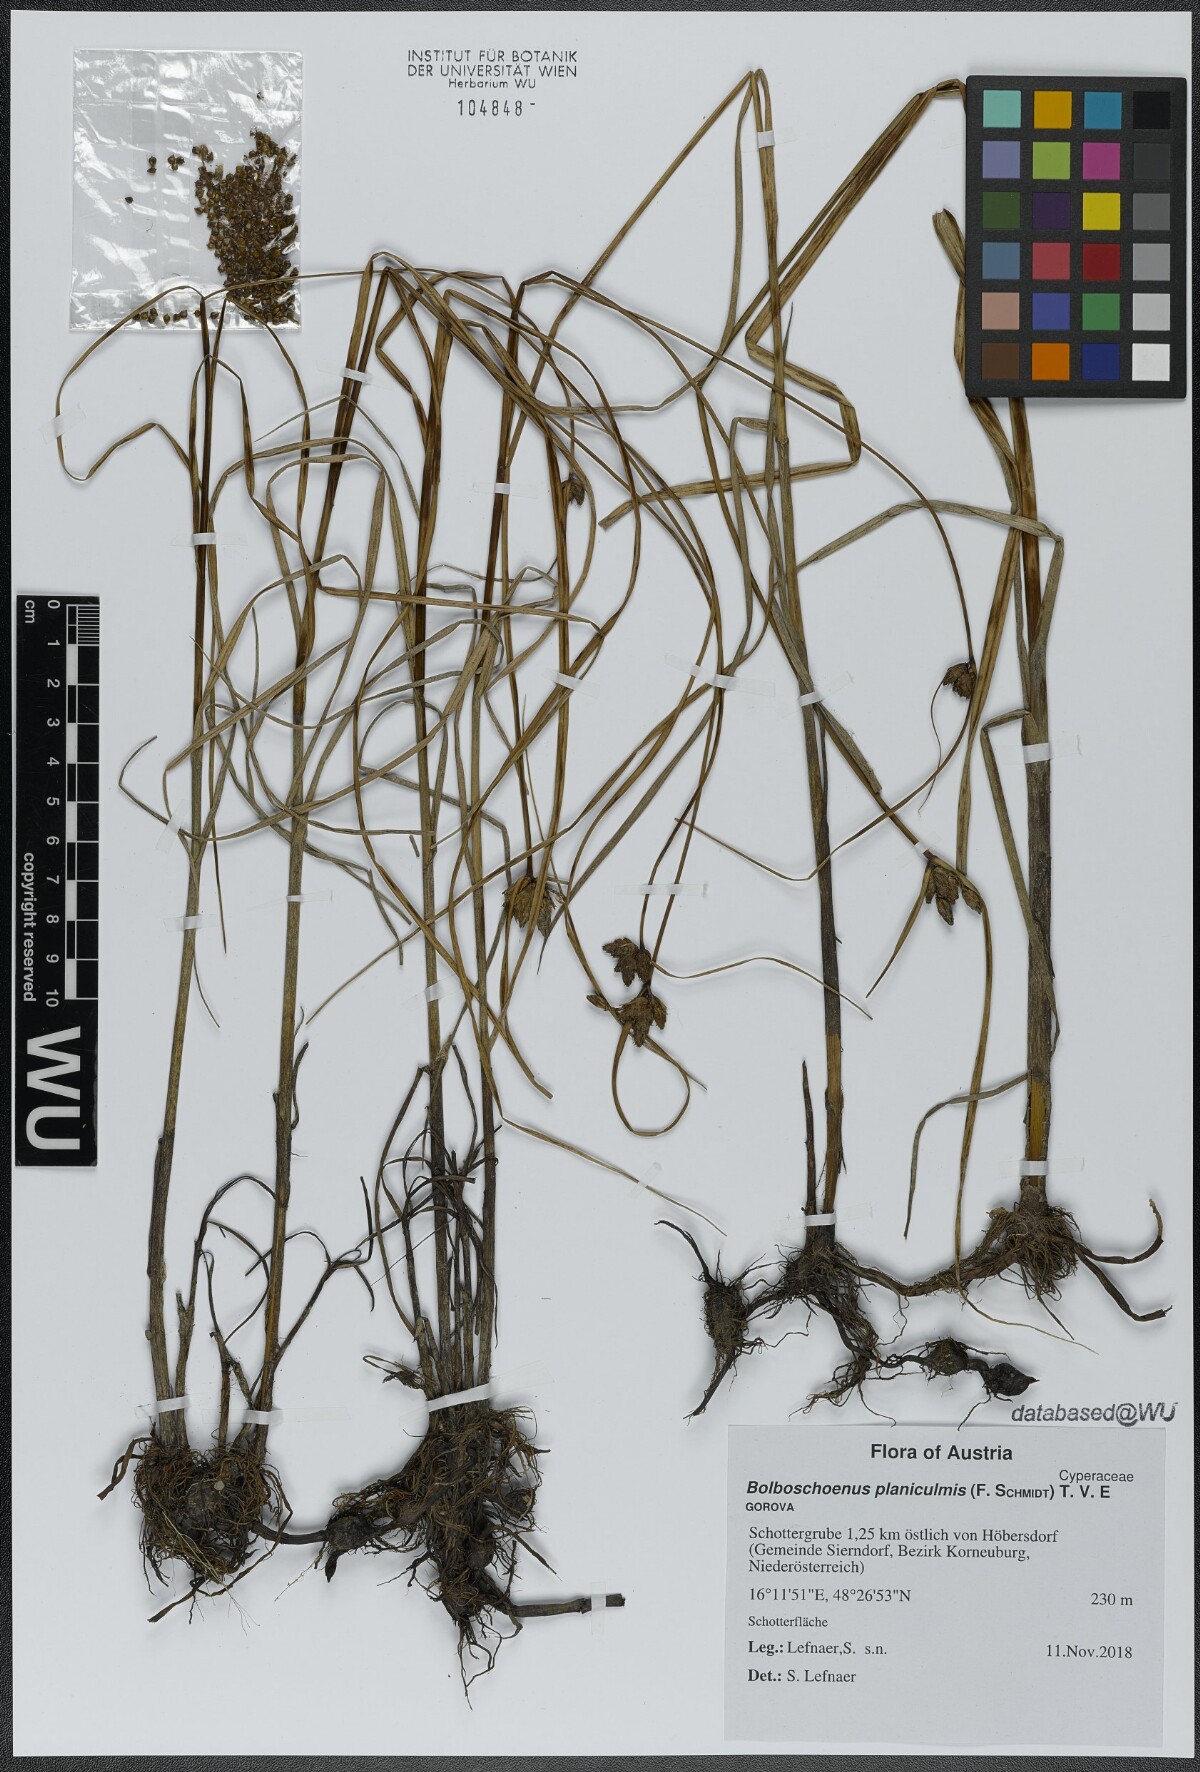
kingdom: Plantae
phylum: Tracheophyta
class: Liliopsida
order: Poales
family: Cyperaceae
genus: Bolboschoenus
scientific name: Bolboschoenus planiculmis
